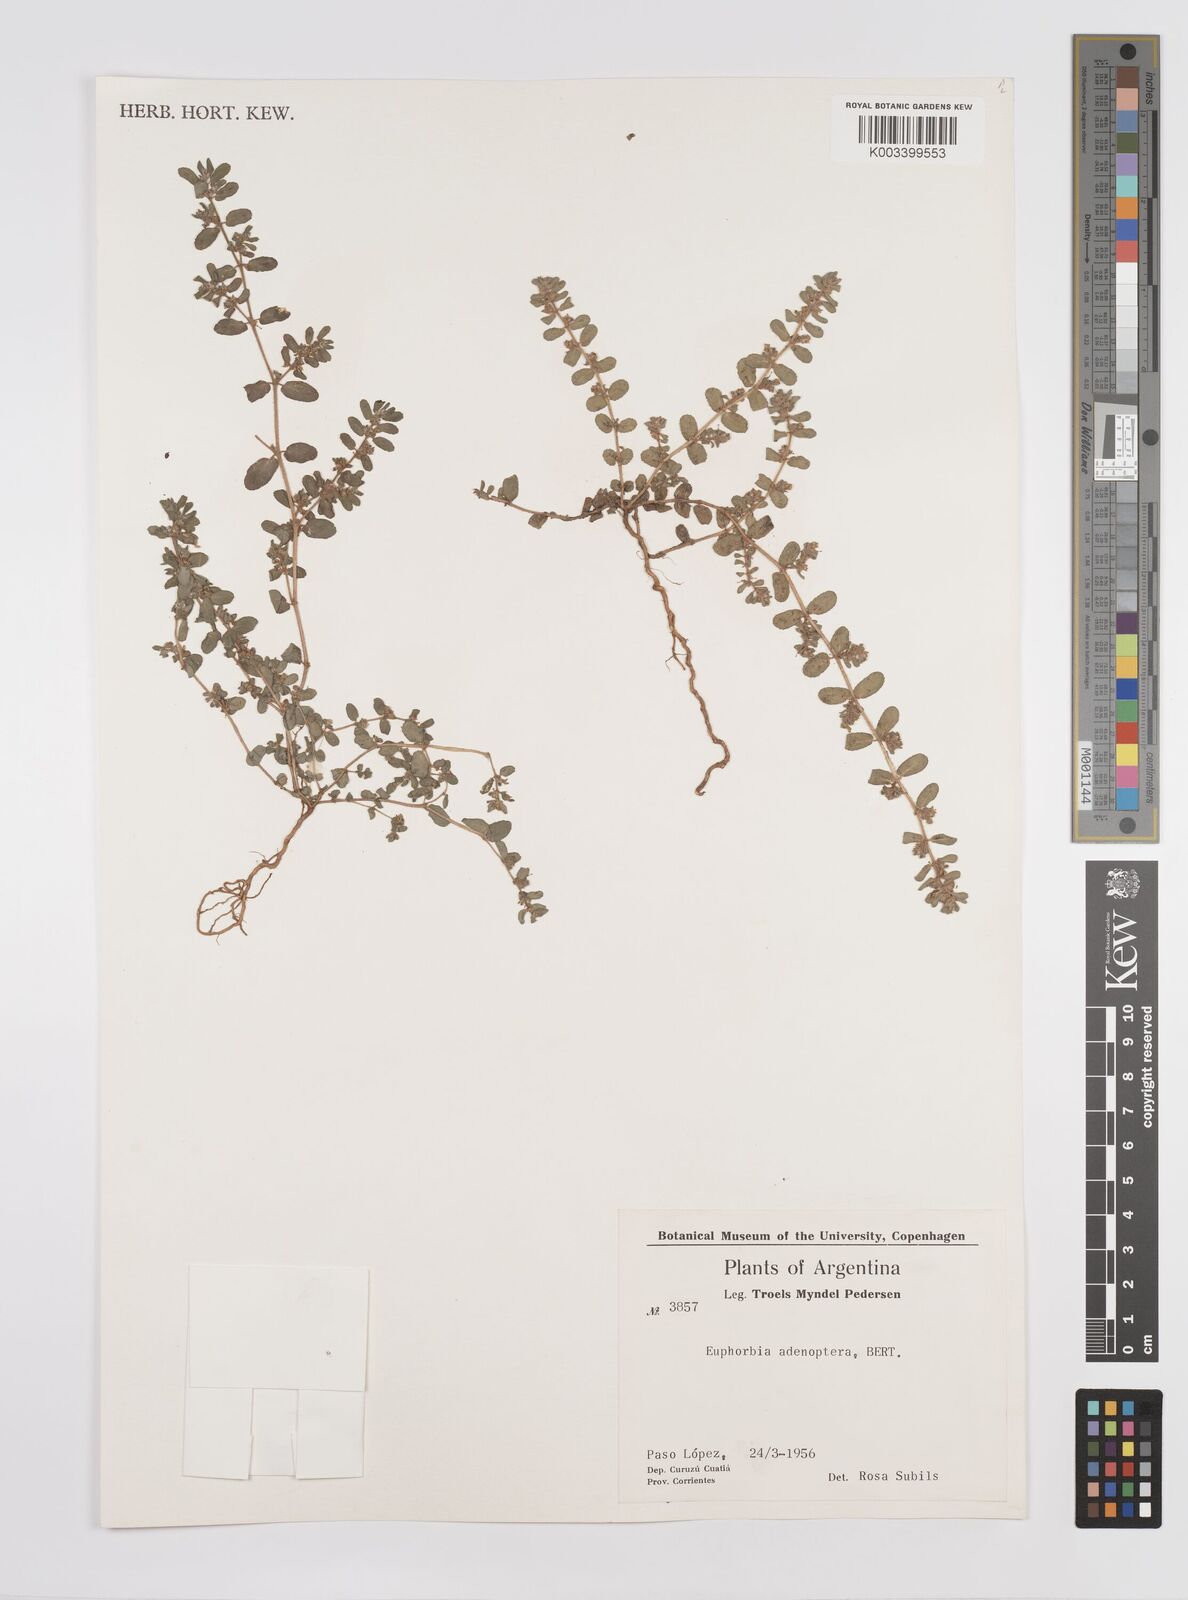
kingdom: Plantae
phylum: Tracheophyta
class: Magnoliopsida
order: Malpighiales
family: Euphorbiaceae
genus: Euphorbia
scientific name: Euphorbia adenoptera
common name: Southern florida sandmat
